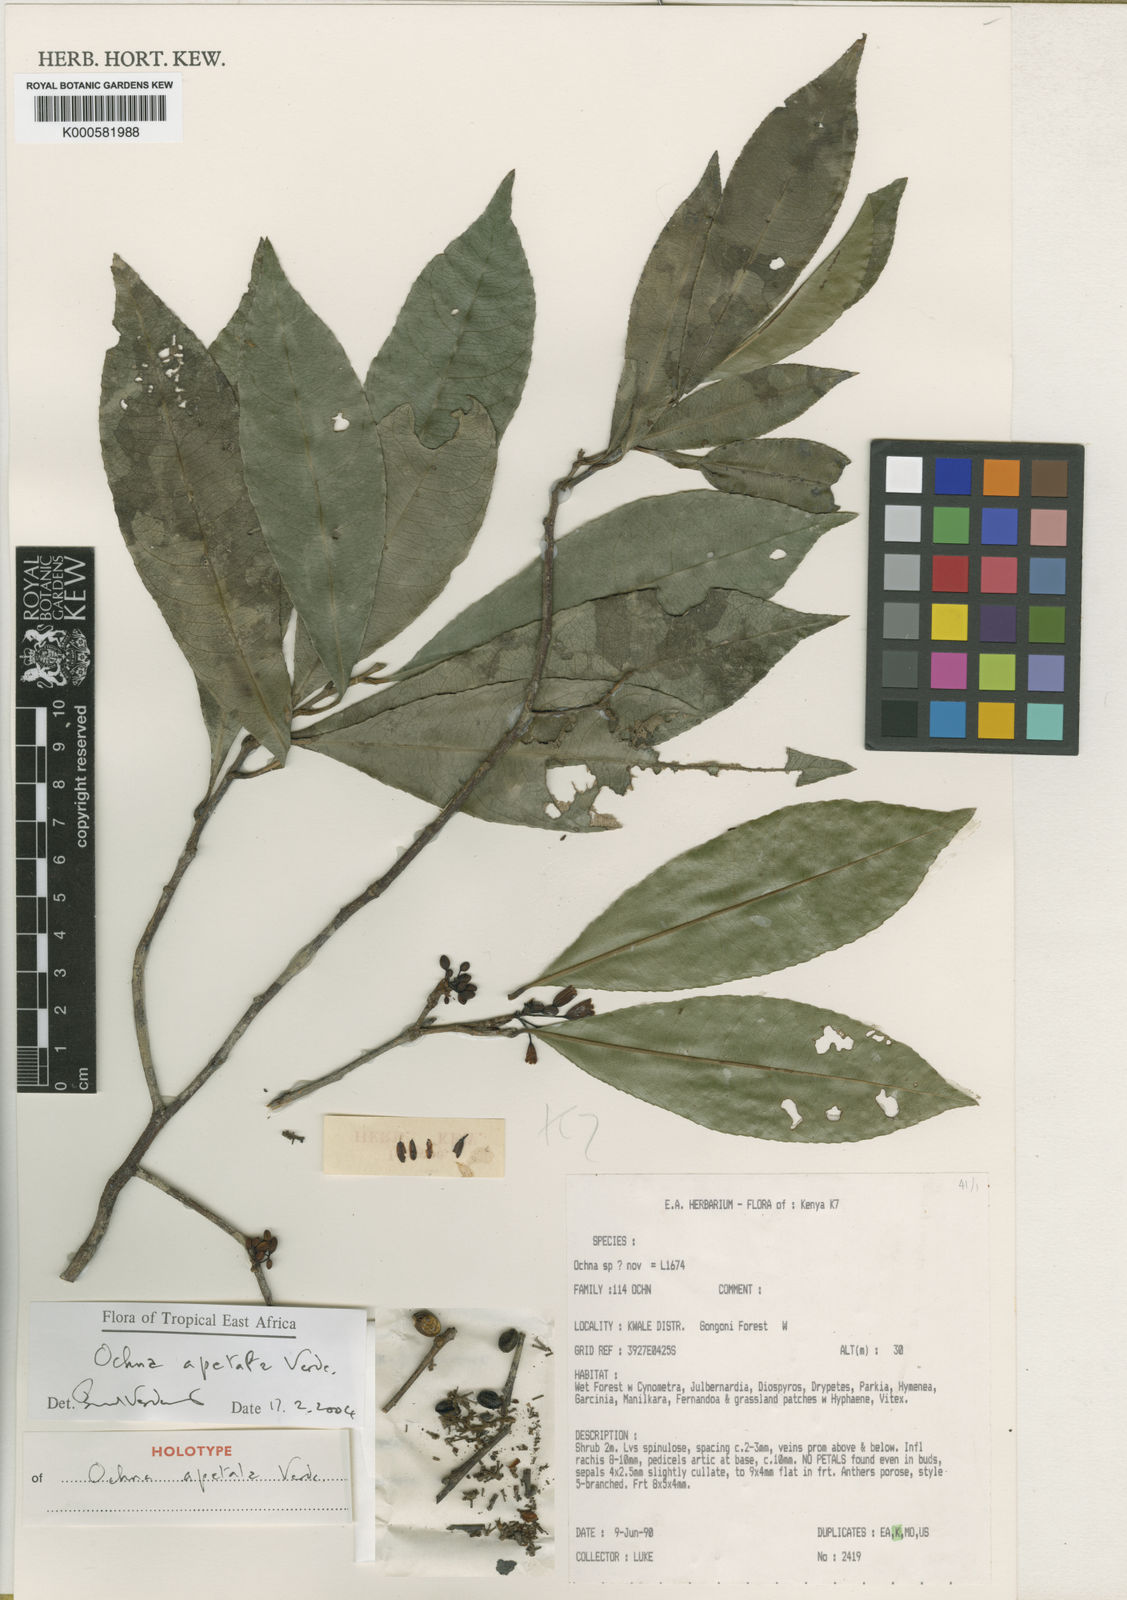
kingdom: Plantae
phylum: Tracheophyta
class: Magnoliopsida
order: Malpighiales
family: Ochnaceae
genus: Ochna
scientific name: Ochna apetala
